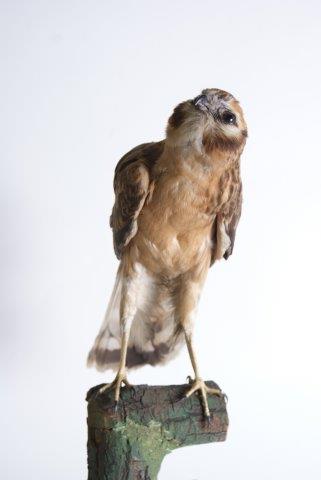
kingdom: Animalia
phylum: Chordata
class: Aves
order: Accipitriformes
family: Accipitridae
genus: Circus
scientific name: Circus pygargus
